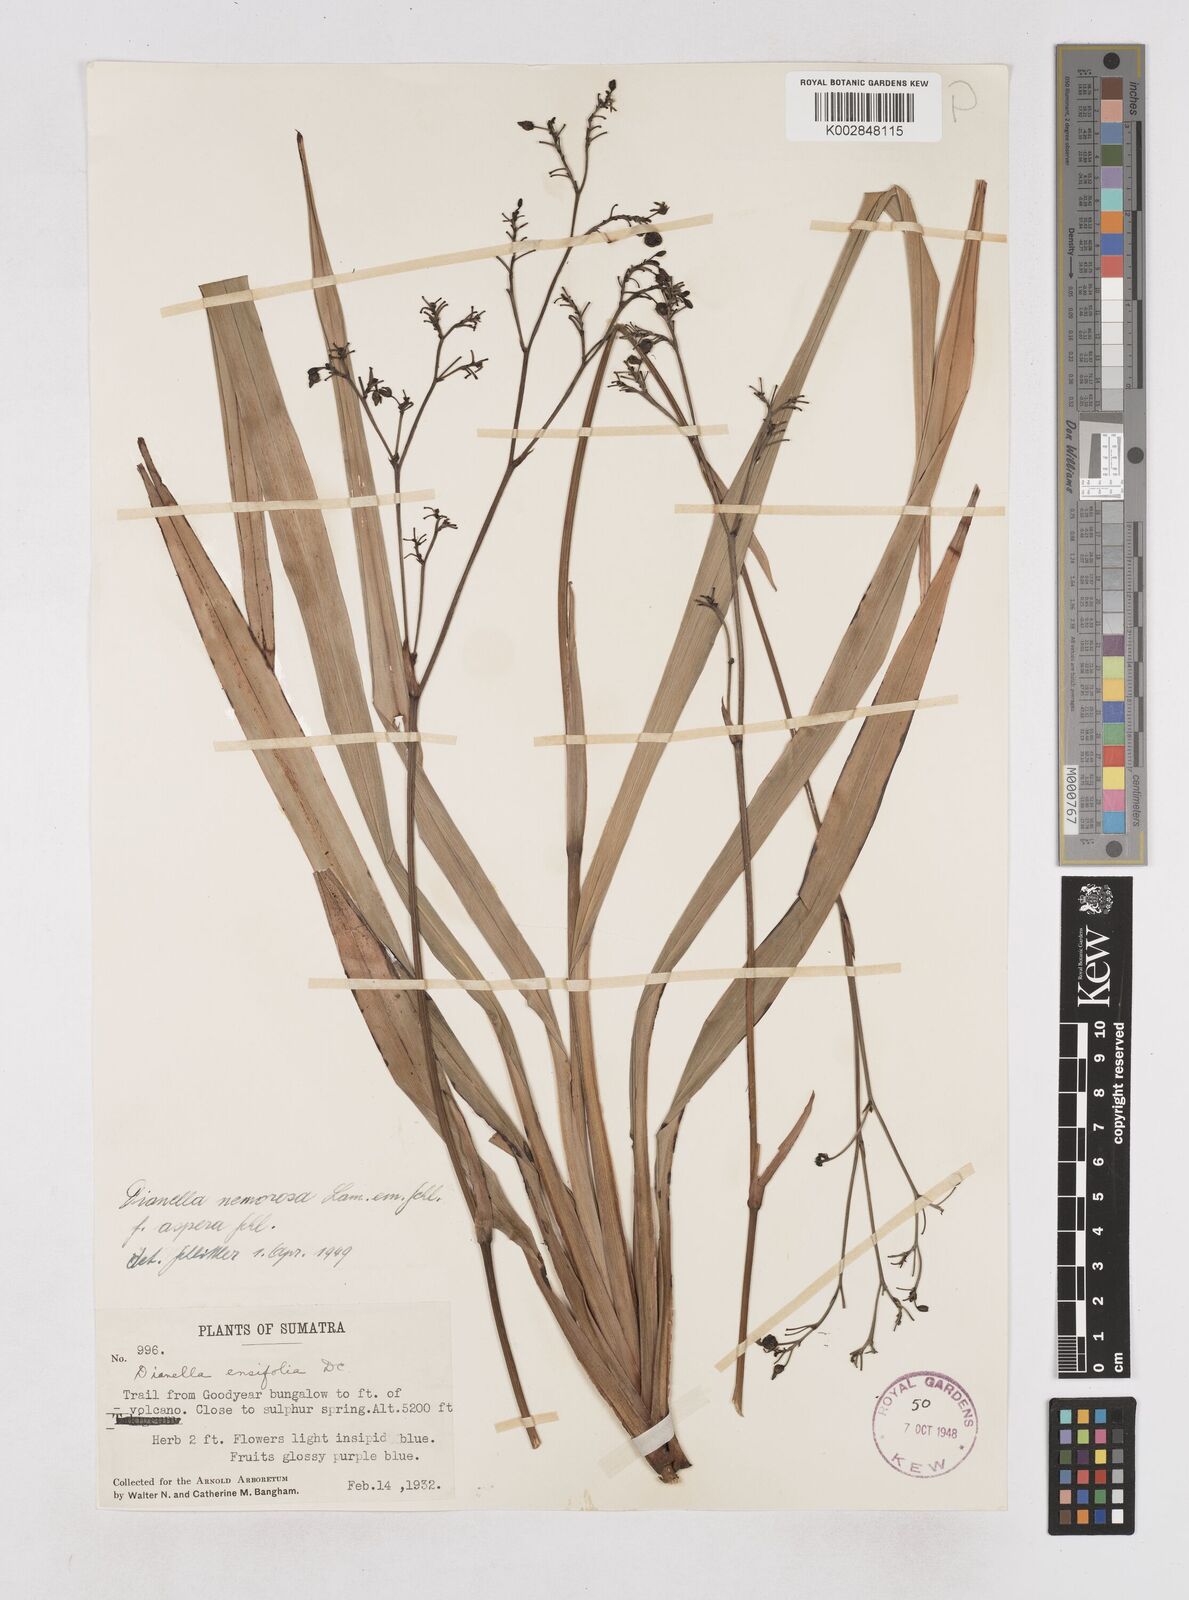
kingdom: Plantae
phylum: Tracheophyta
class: Liliopsida
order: Asparagales
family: Asphodelaceae
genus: Dianella
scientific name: Dianella ensifolia
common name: New zealand lilyplant
